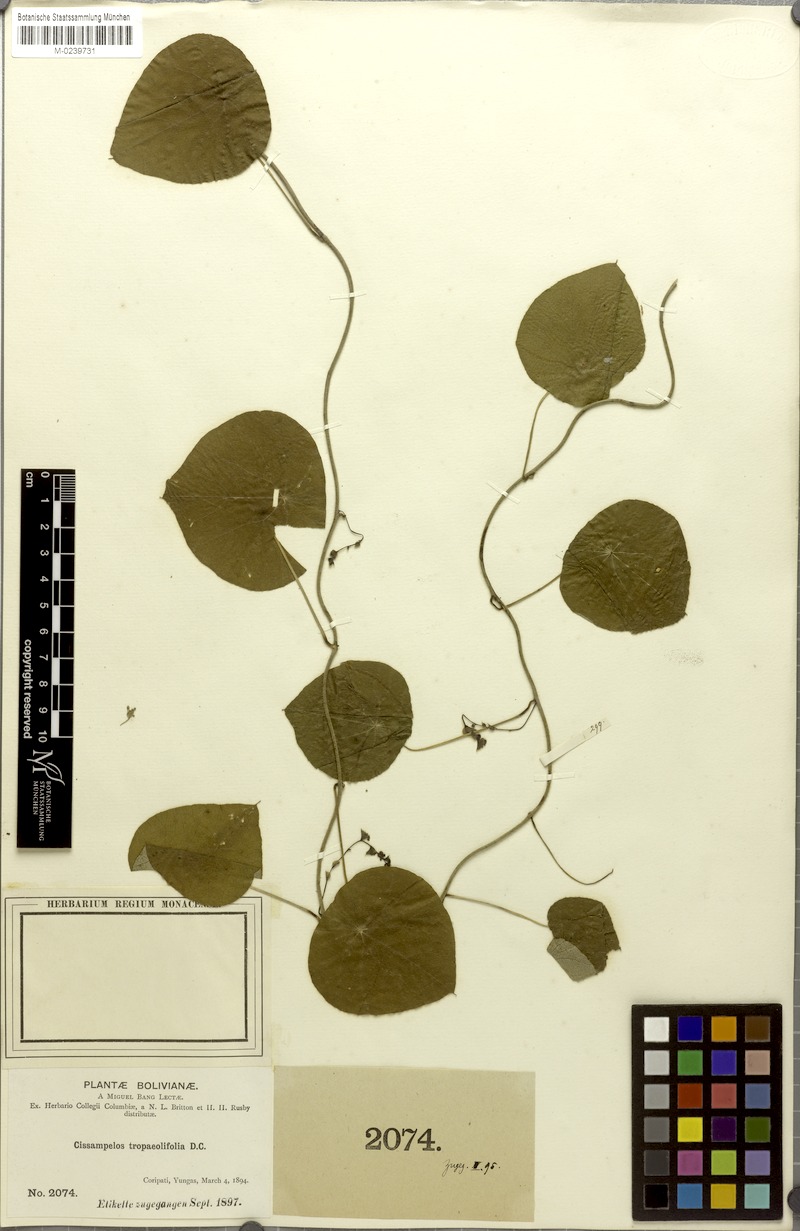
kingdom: Plantae
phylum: Tracheophyta
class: Magnoliopsida
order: Ranunculales
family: Menispermaceae
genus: Cissampelos
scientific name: Cissampelos tropaeolifolia
